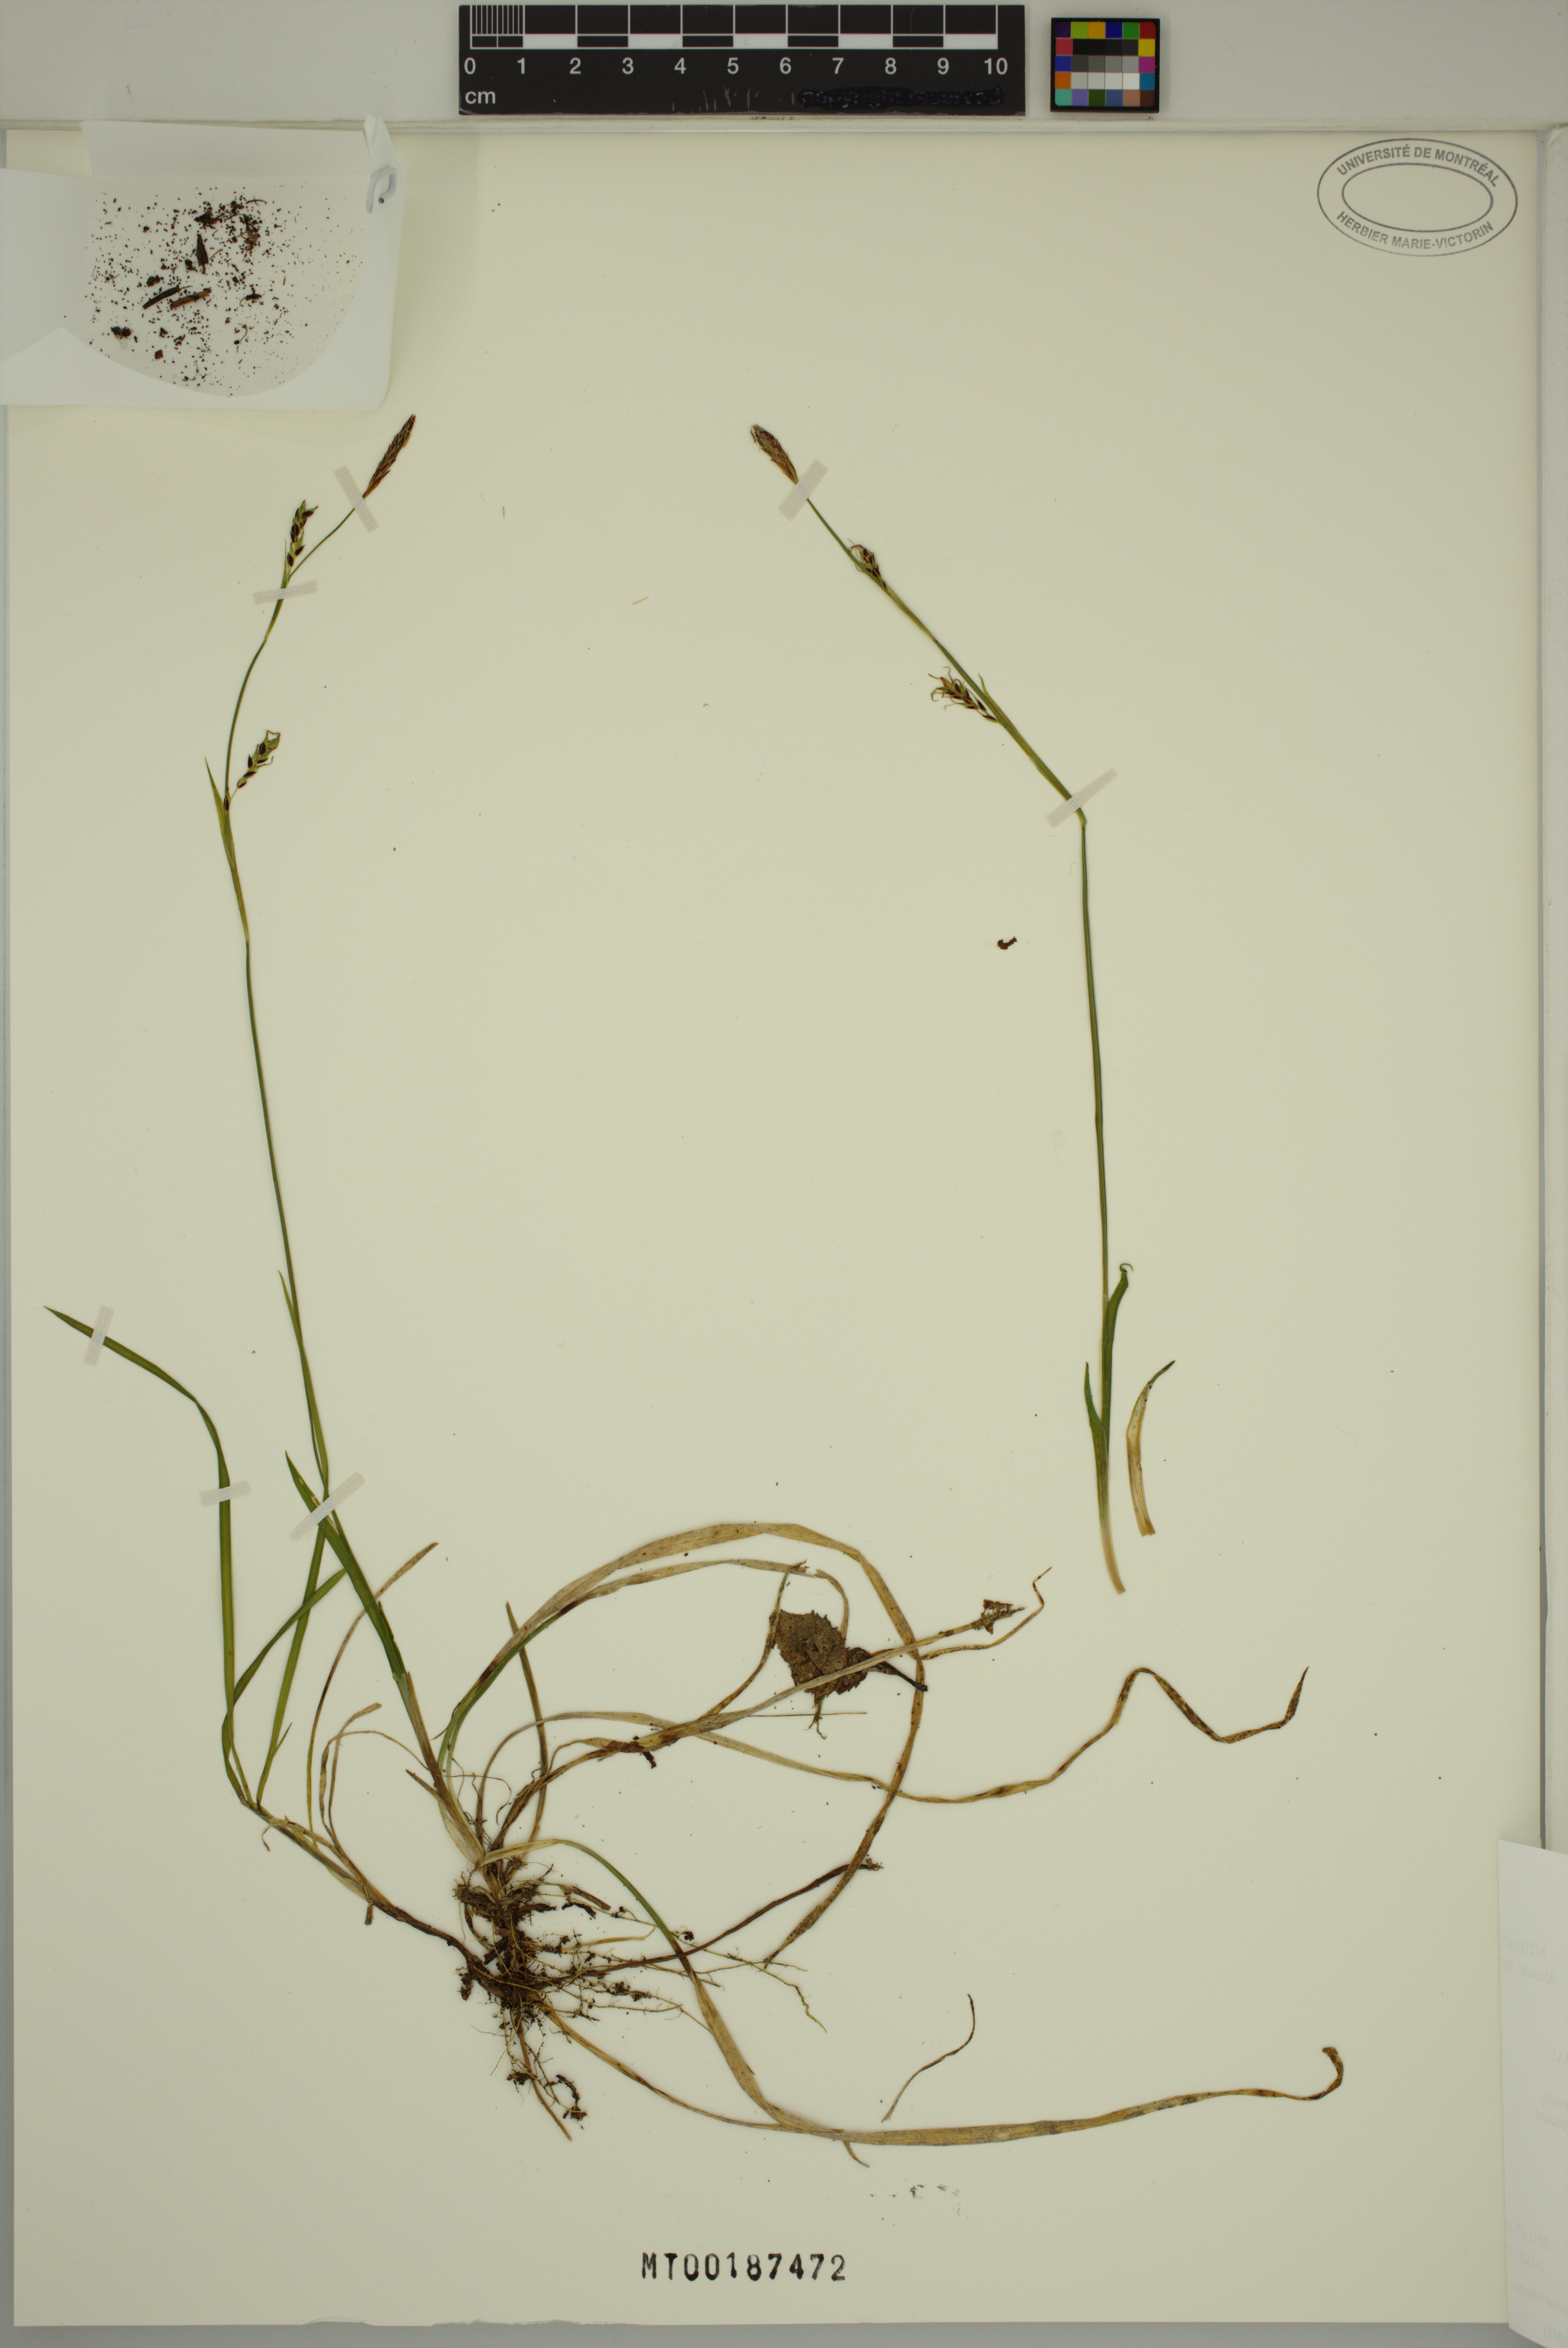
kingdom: Plantae
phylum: Tracheophyta
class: Liliopsida
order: Poales
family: Cyperaceae
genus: Carex
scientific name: Carex vaginata
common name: Sheathed sedge
